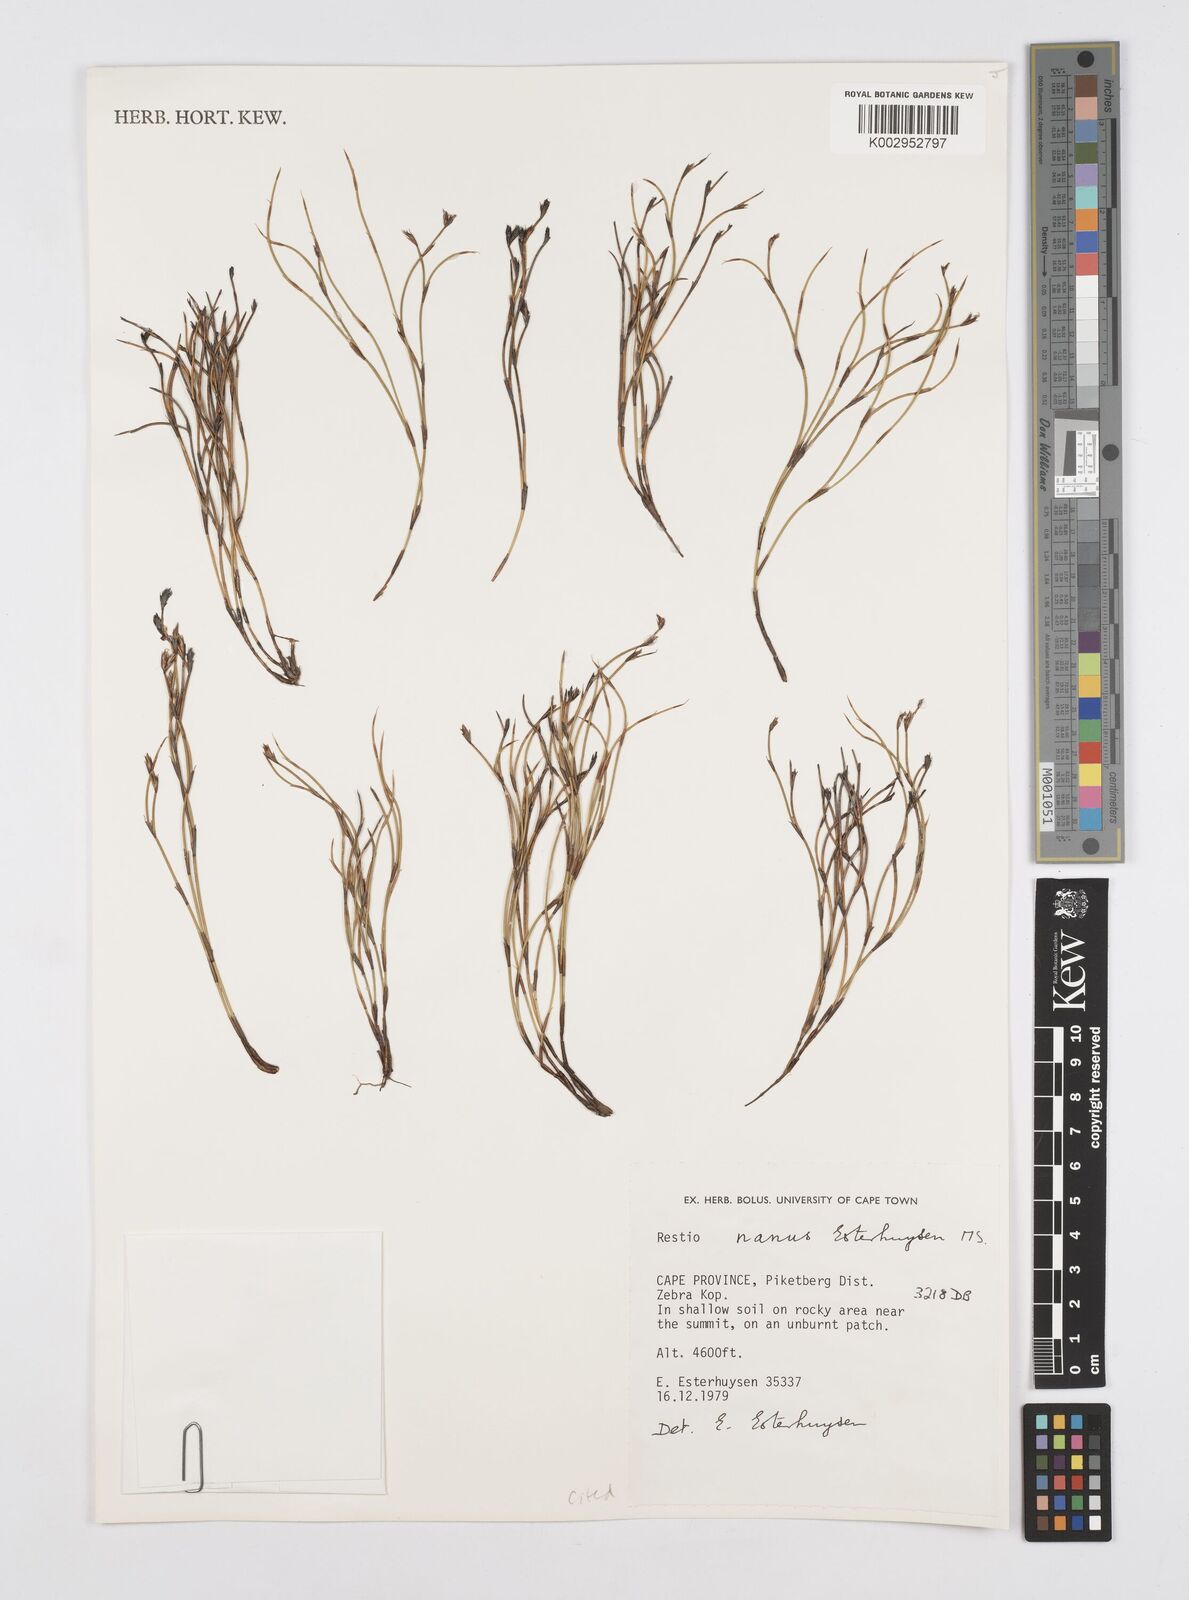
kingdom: Plantae
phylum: Tracheophyta
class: Liliopsida
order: Poales
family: Restionaceae
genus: Restio
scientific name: Restio nanus
